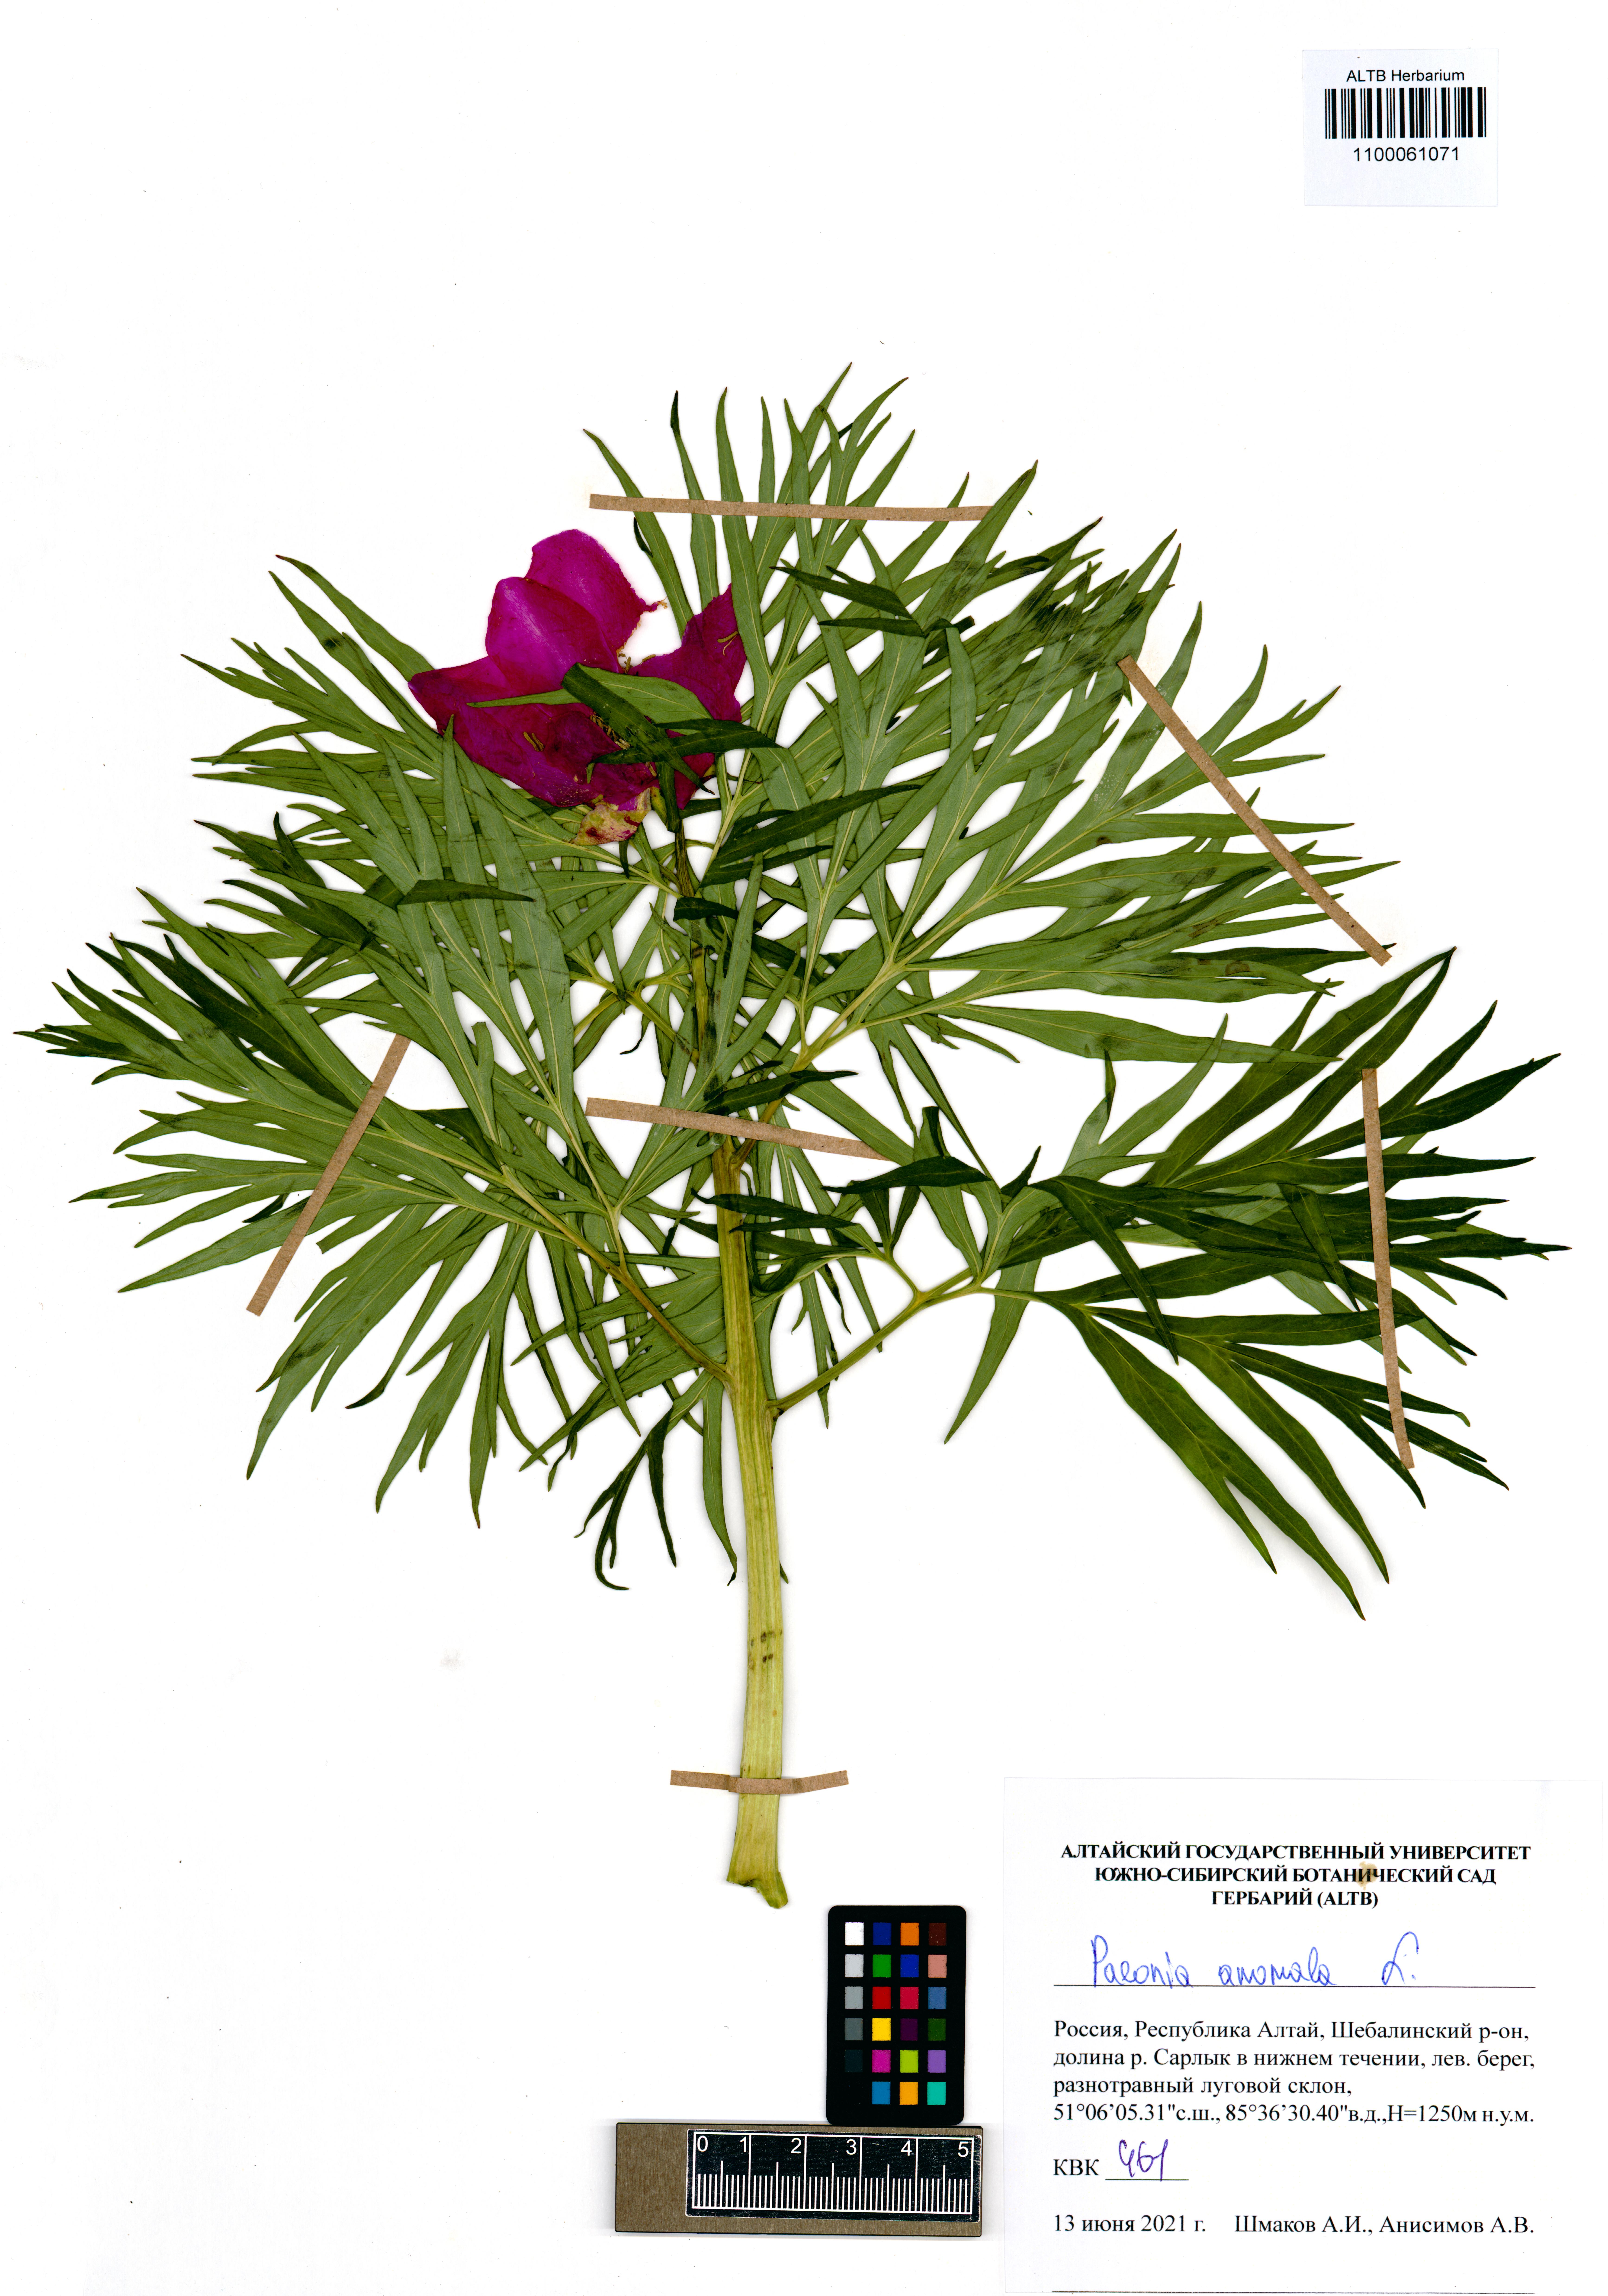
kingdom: Plantae
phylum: Tracheophyta
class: Magnoliopsida
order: Saxifragales
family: Paeoniaceae
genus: Paeonia
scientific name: Paeonia anomala
